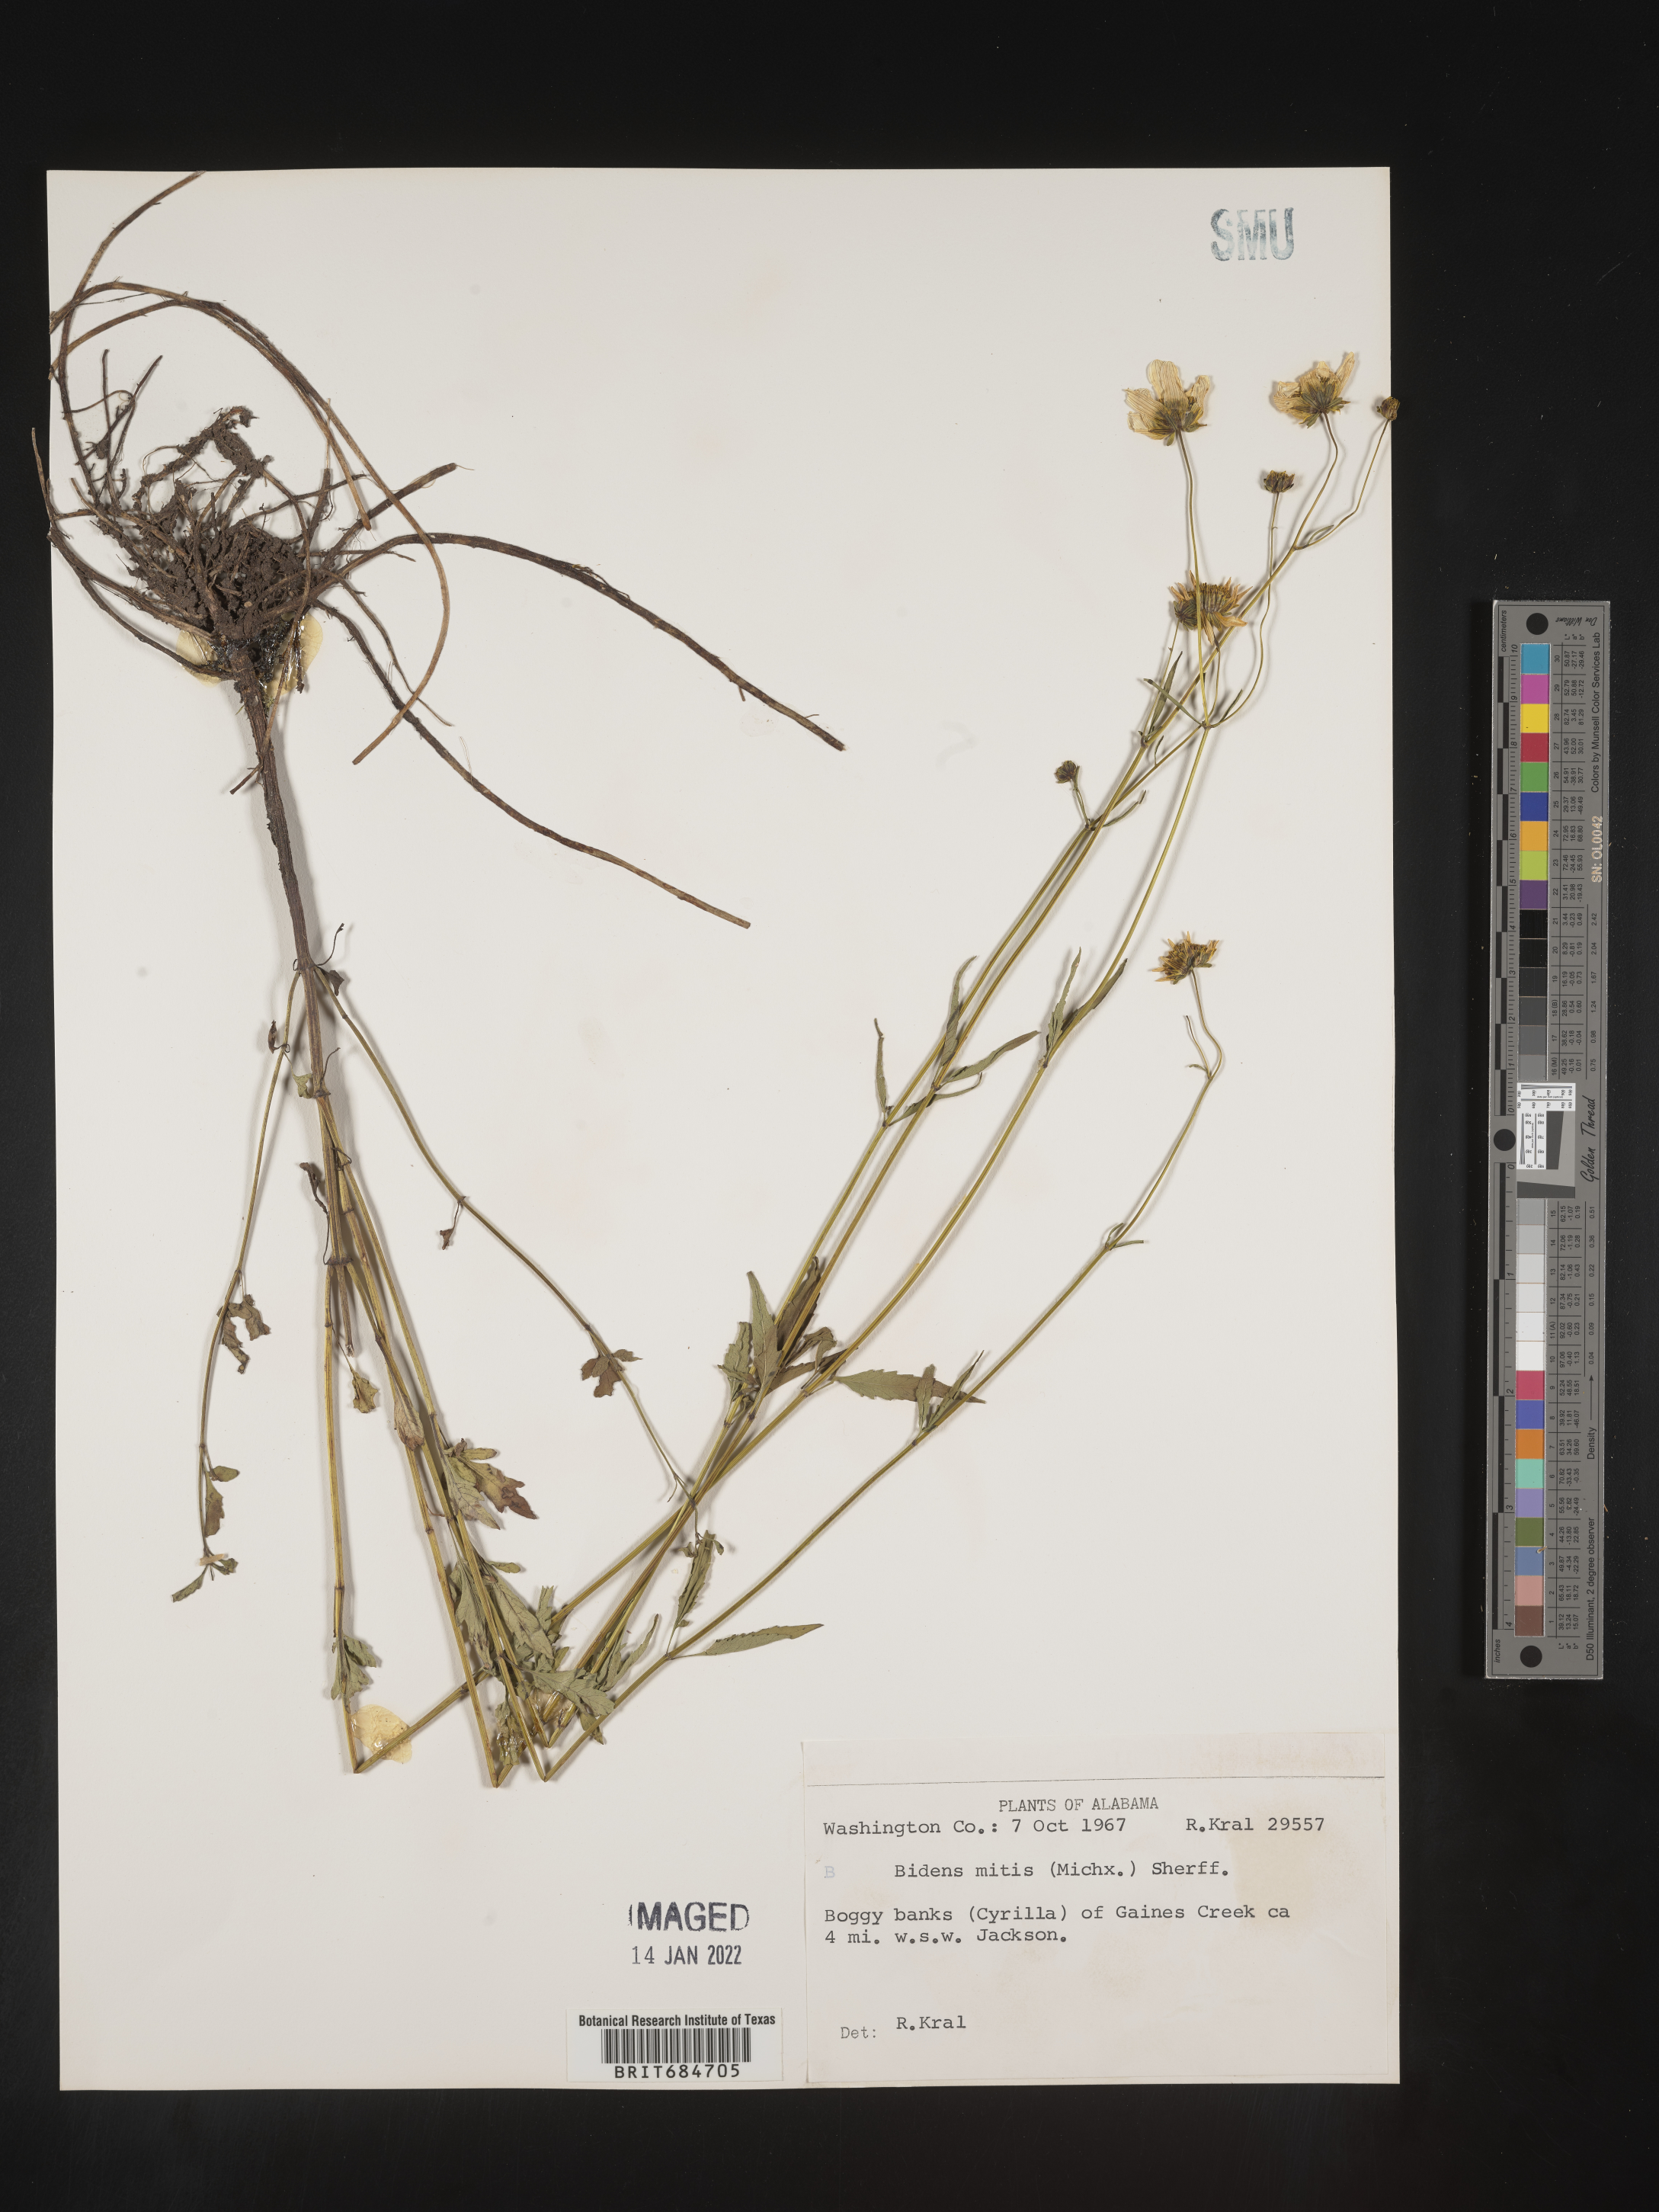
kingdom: Plantae
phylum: Tracheophyta
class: Magnoliopsida
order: Asterales
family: Asteraceae
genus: Bidens
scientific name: Bidens mitis
